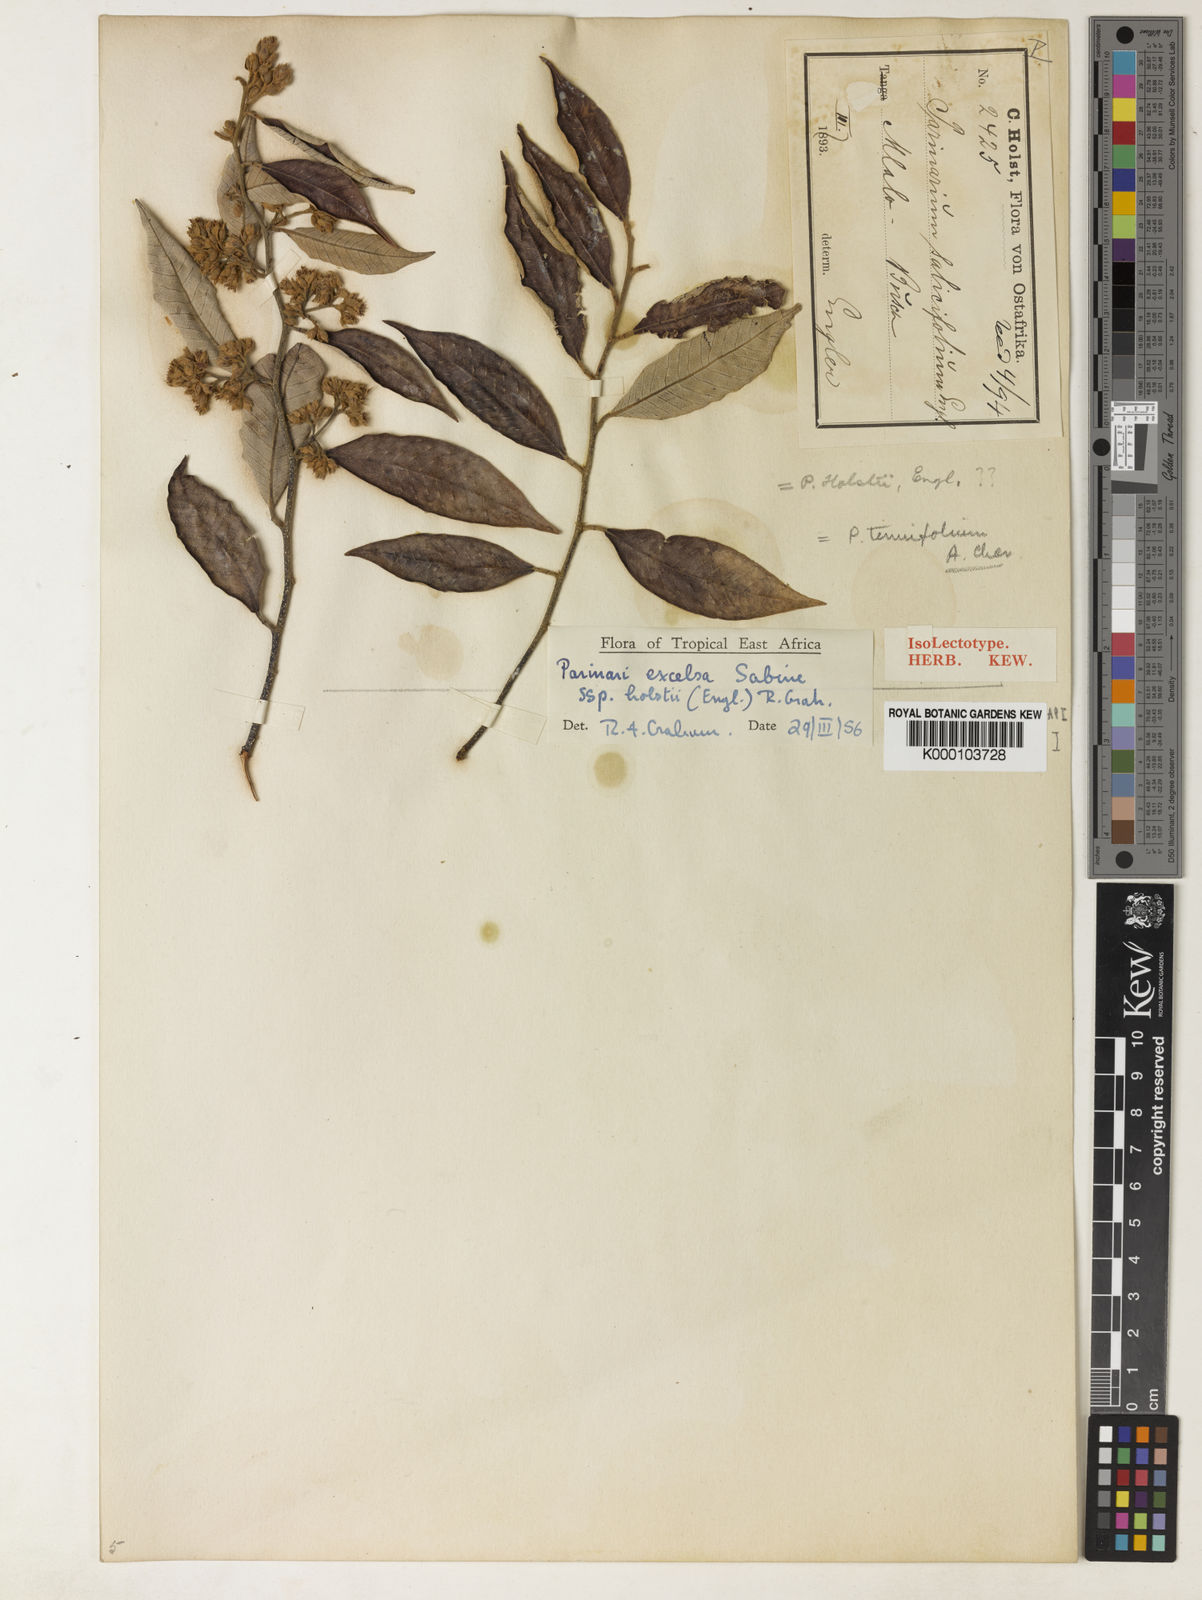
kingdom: Plantae
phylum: Tracheophyta
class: Magnoliopsida
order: Malpighiales
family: Chrysobalanaceae
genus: Parinari
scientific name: Parinari excelsa
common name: Guinea-plum
